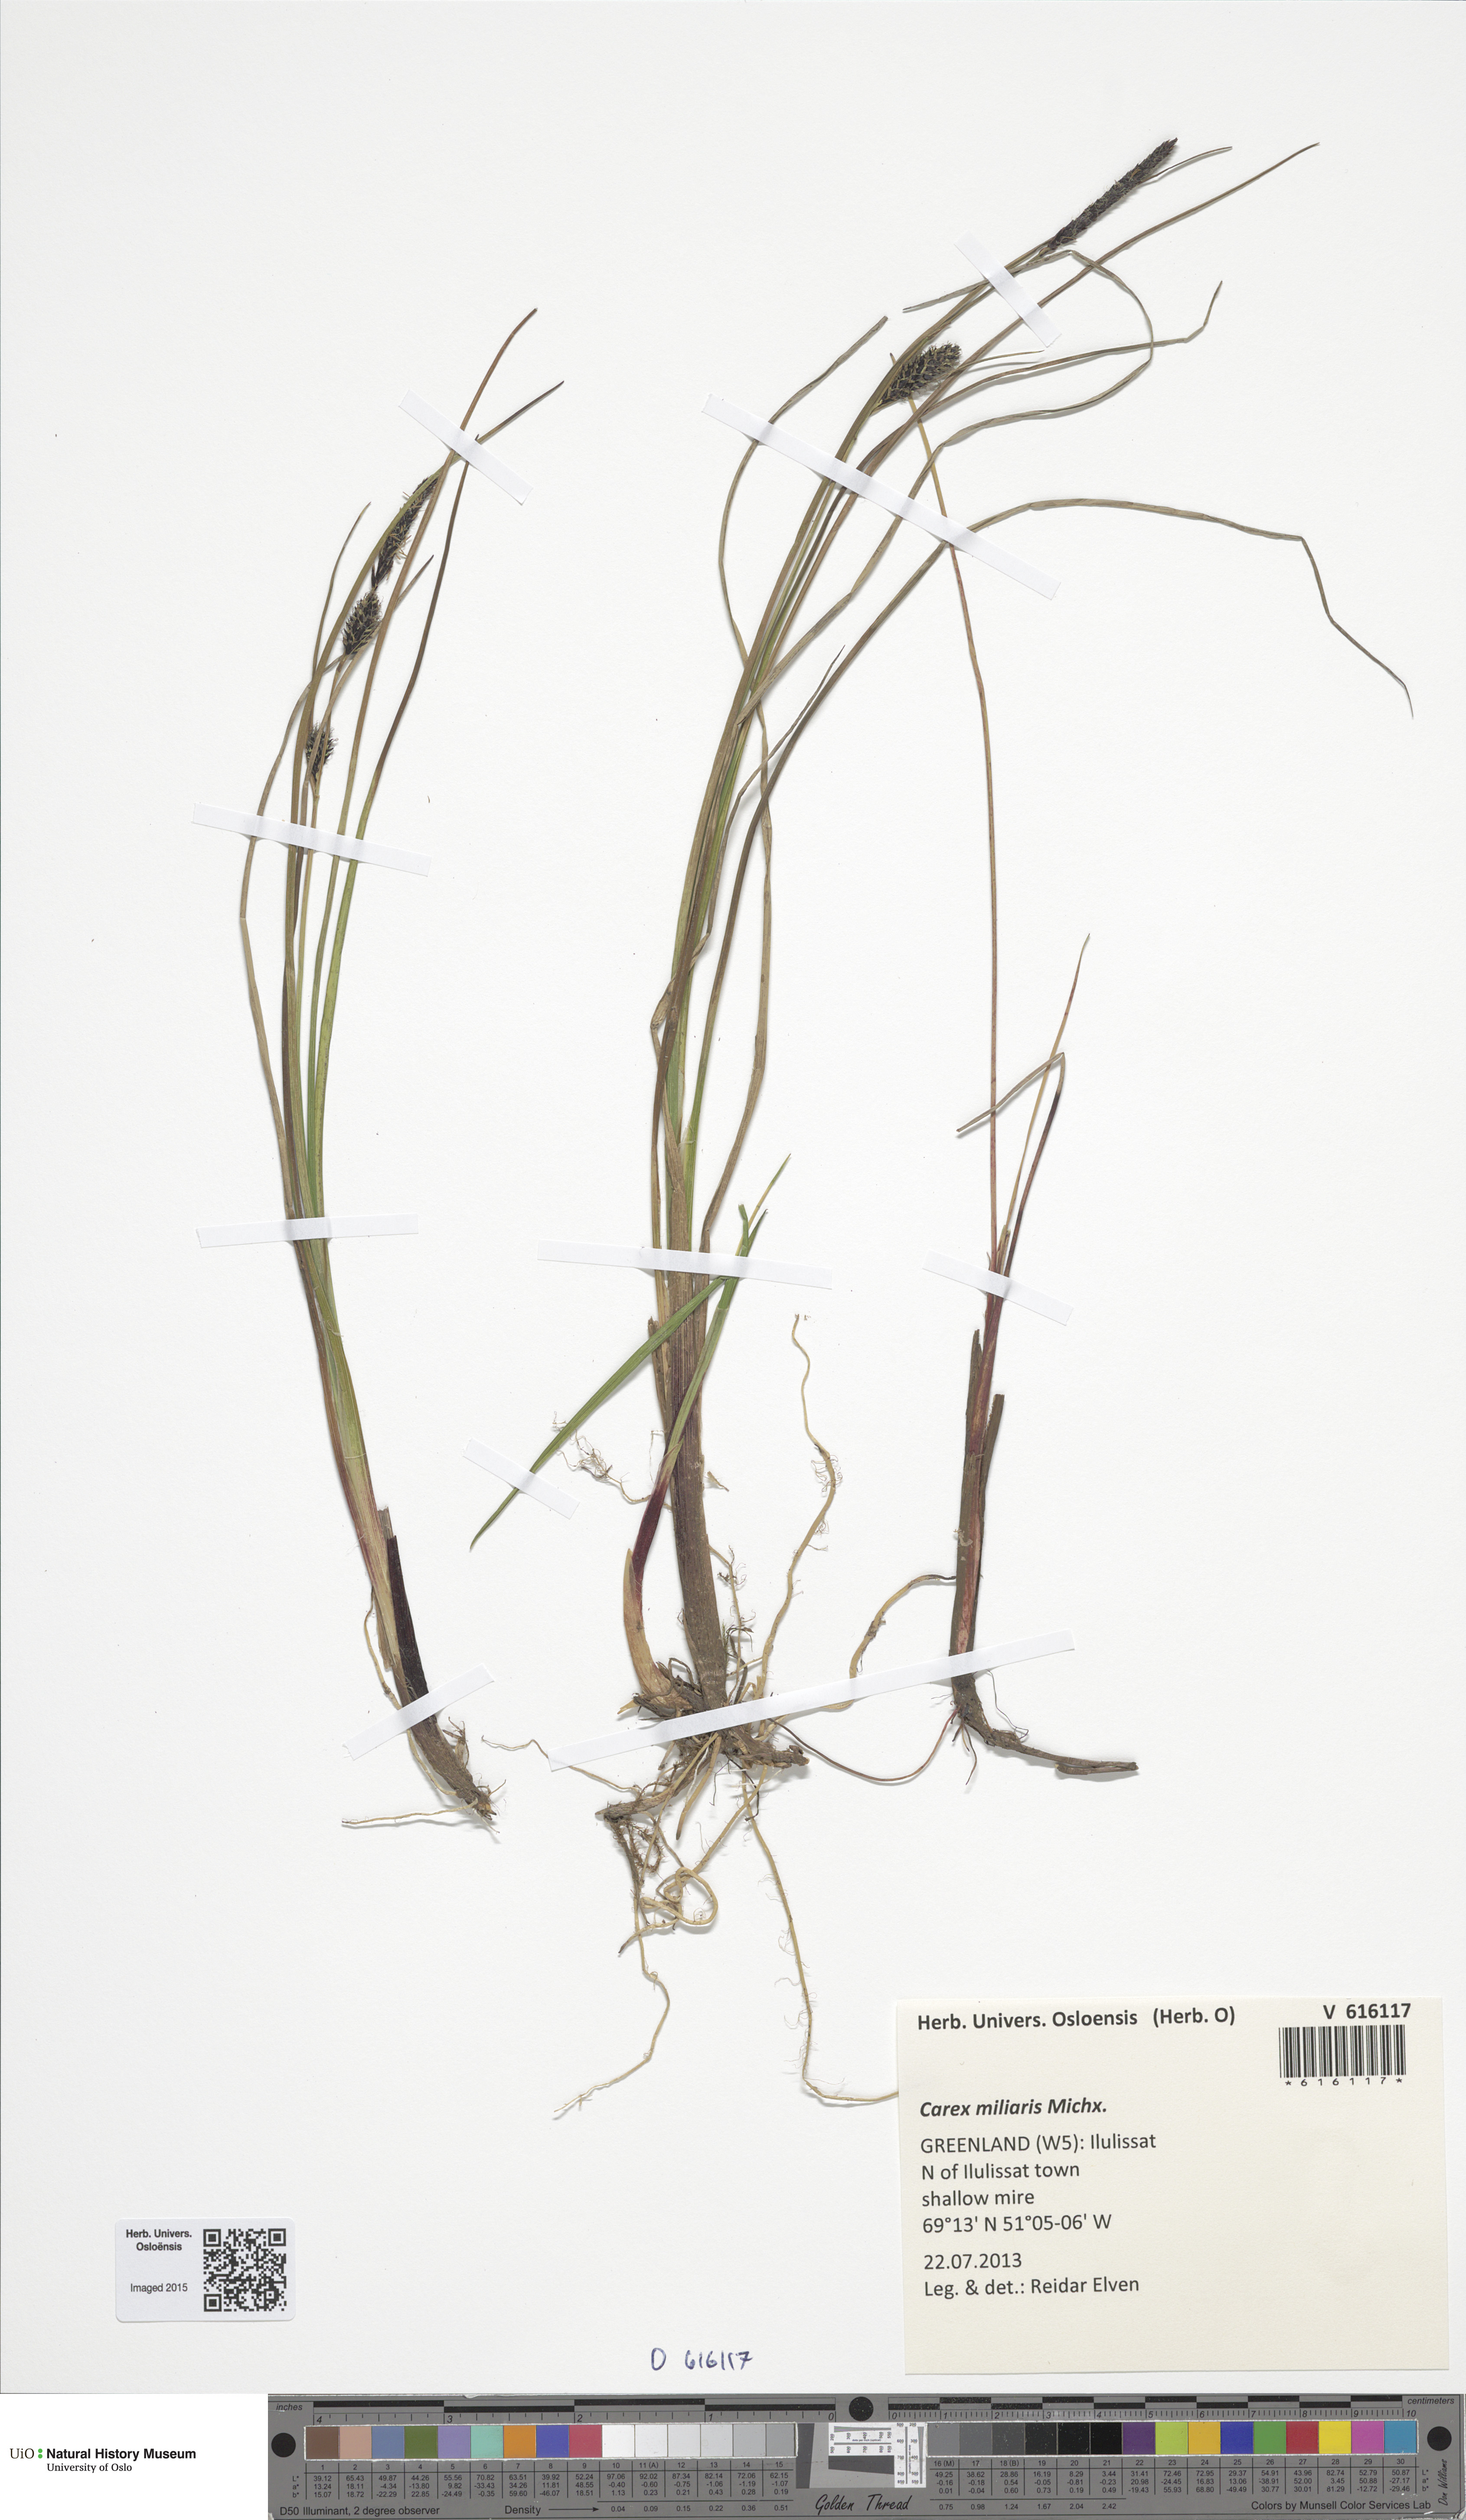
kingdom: Plantae
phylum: Tracheophyta
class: Liliopsida
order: Poales
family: Cyperaceae
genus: Carex
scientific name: Carex miliaris
